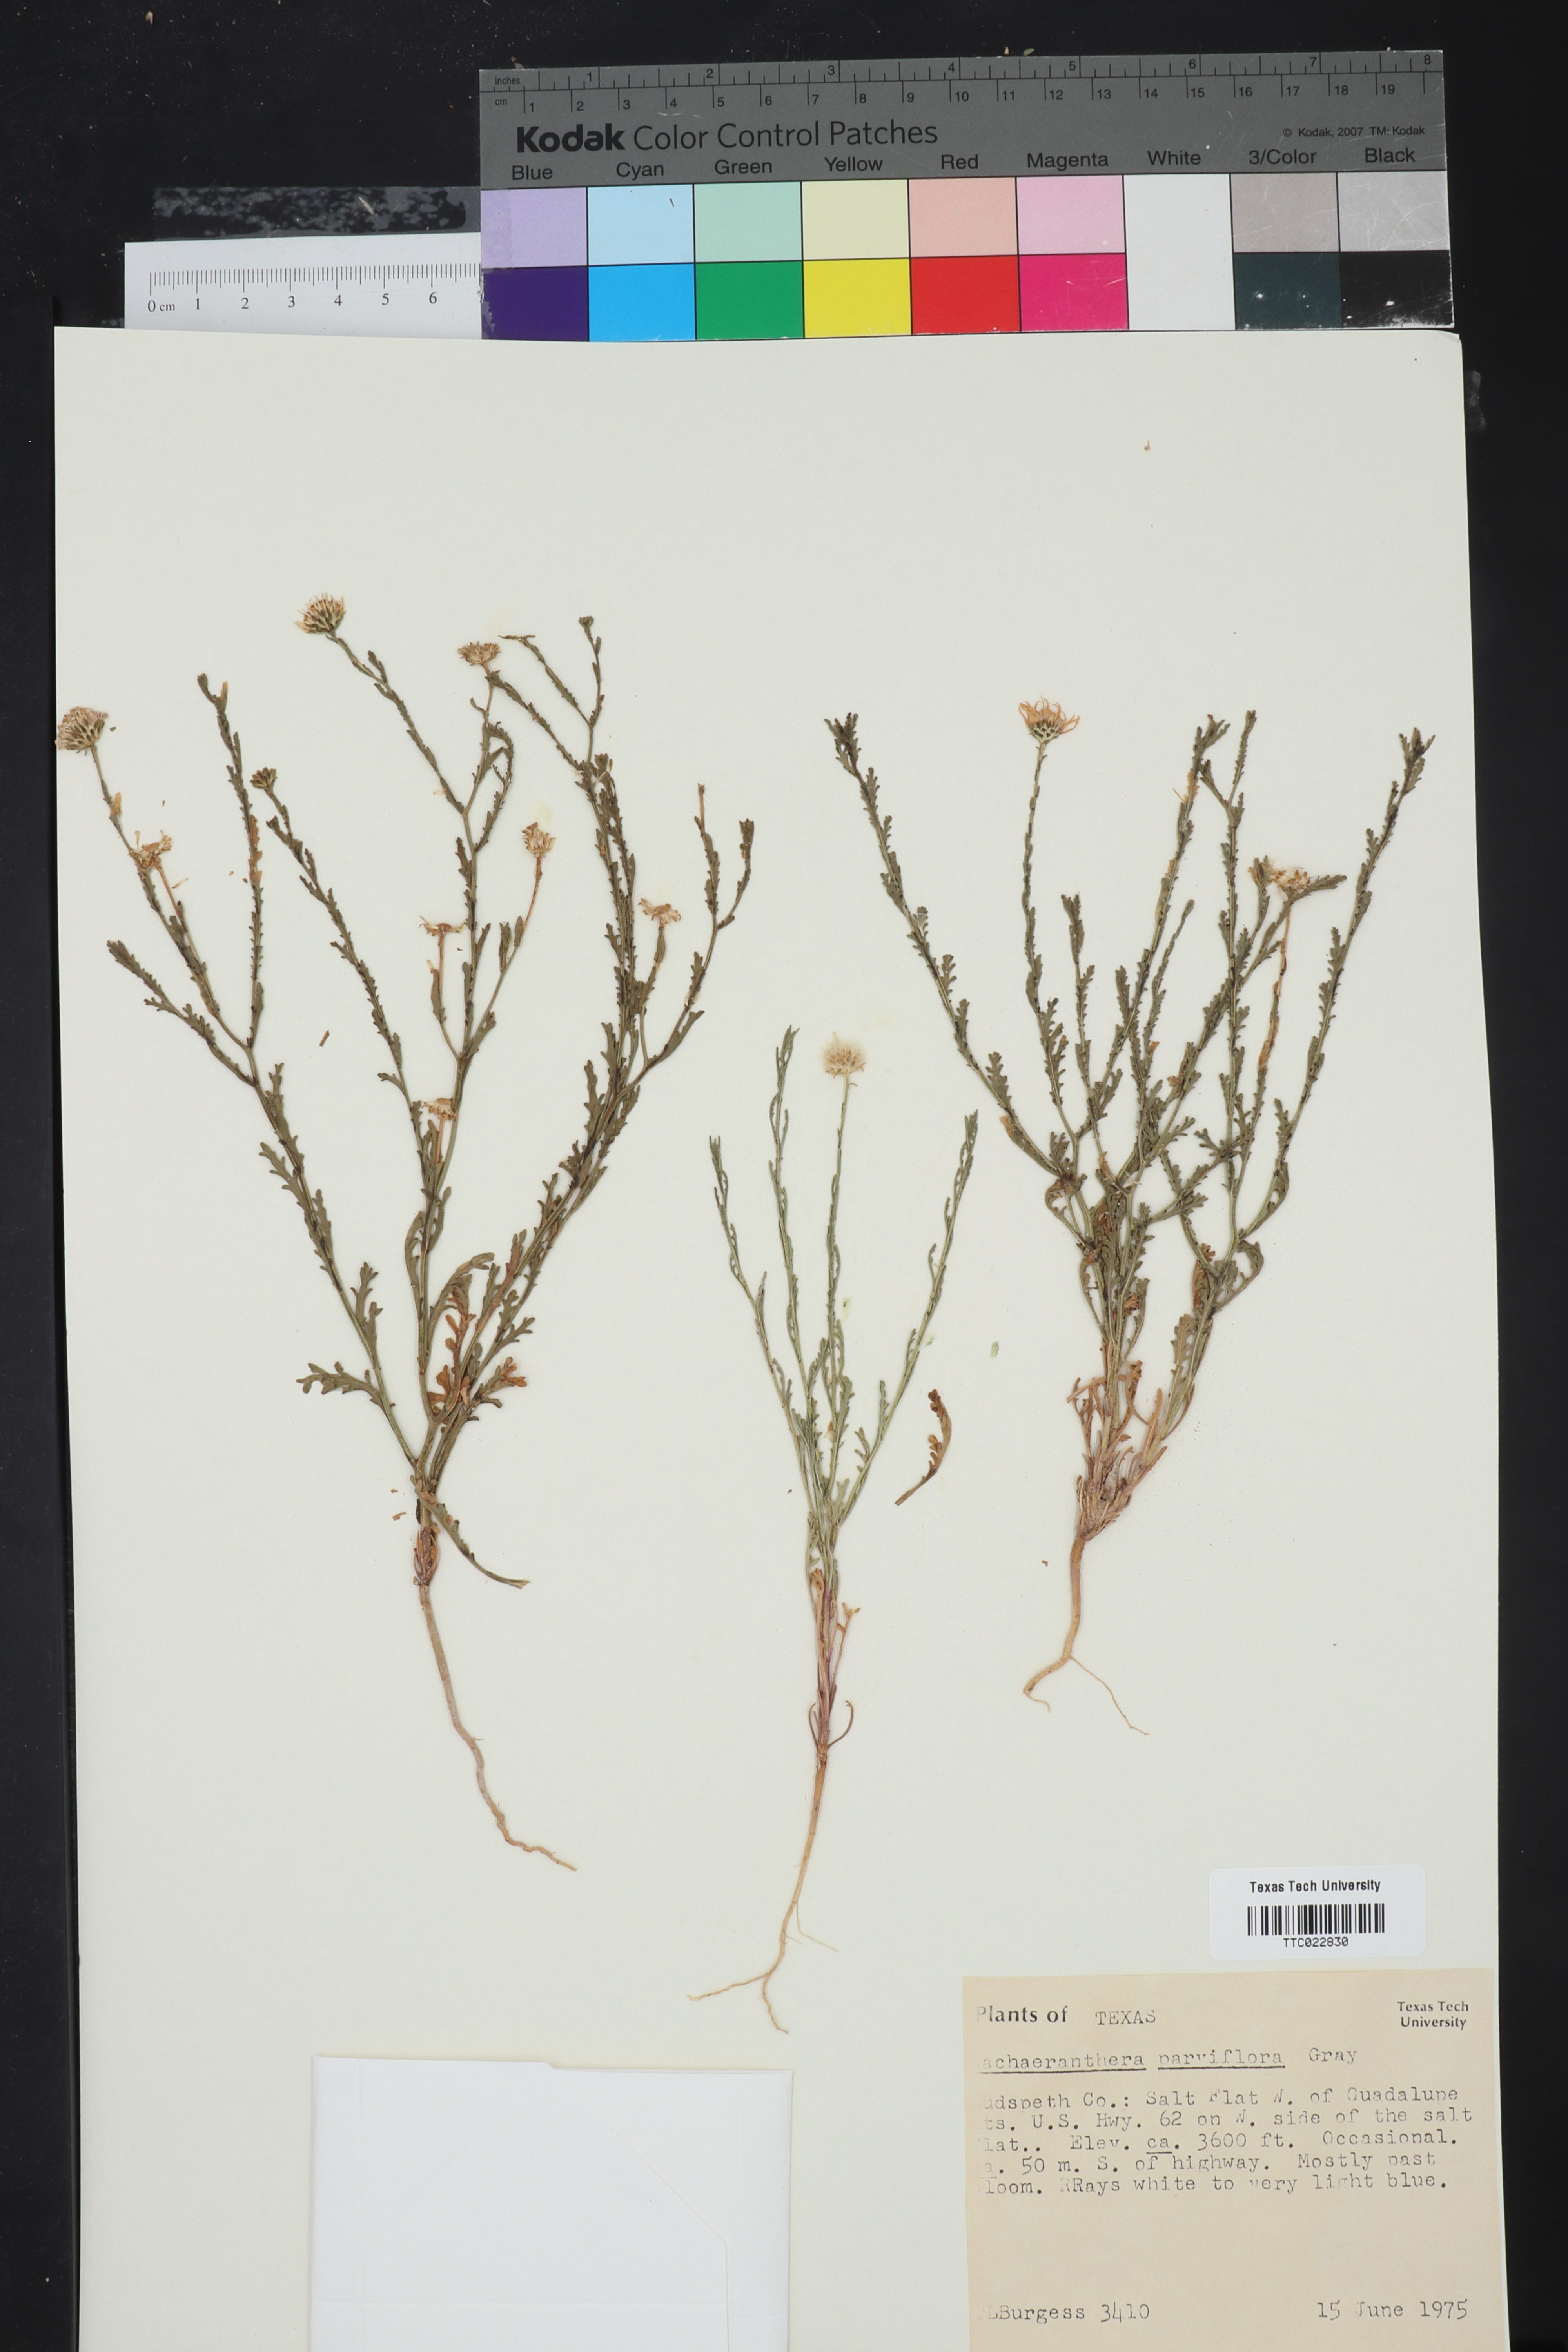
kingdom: Plantae
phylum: Tracheophyta
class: Magnoliopsida
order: Asterales
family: Asteraceae
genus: Leucosyris
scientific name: Leucosyris parviflora
